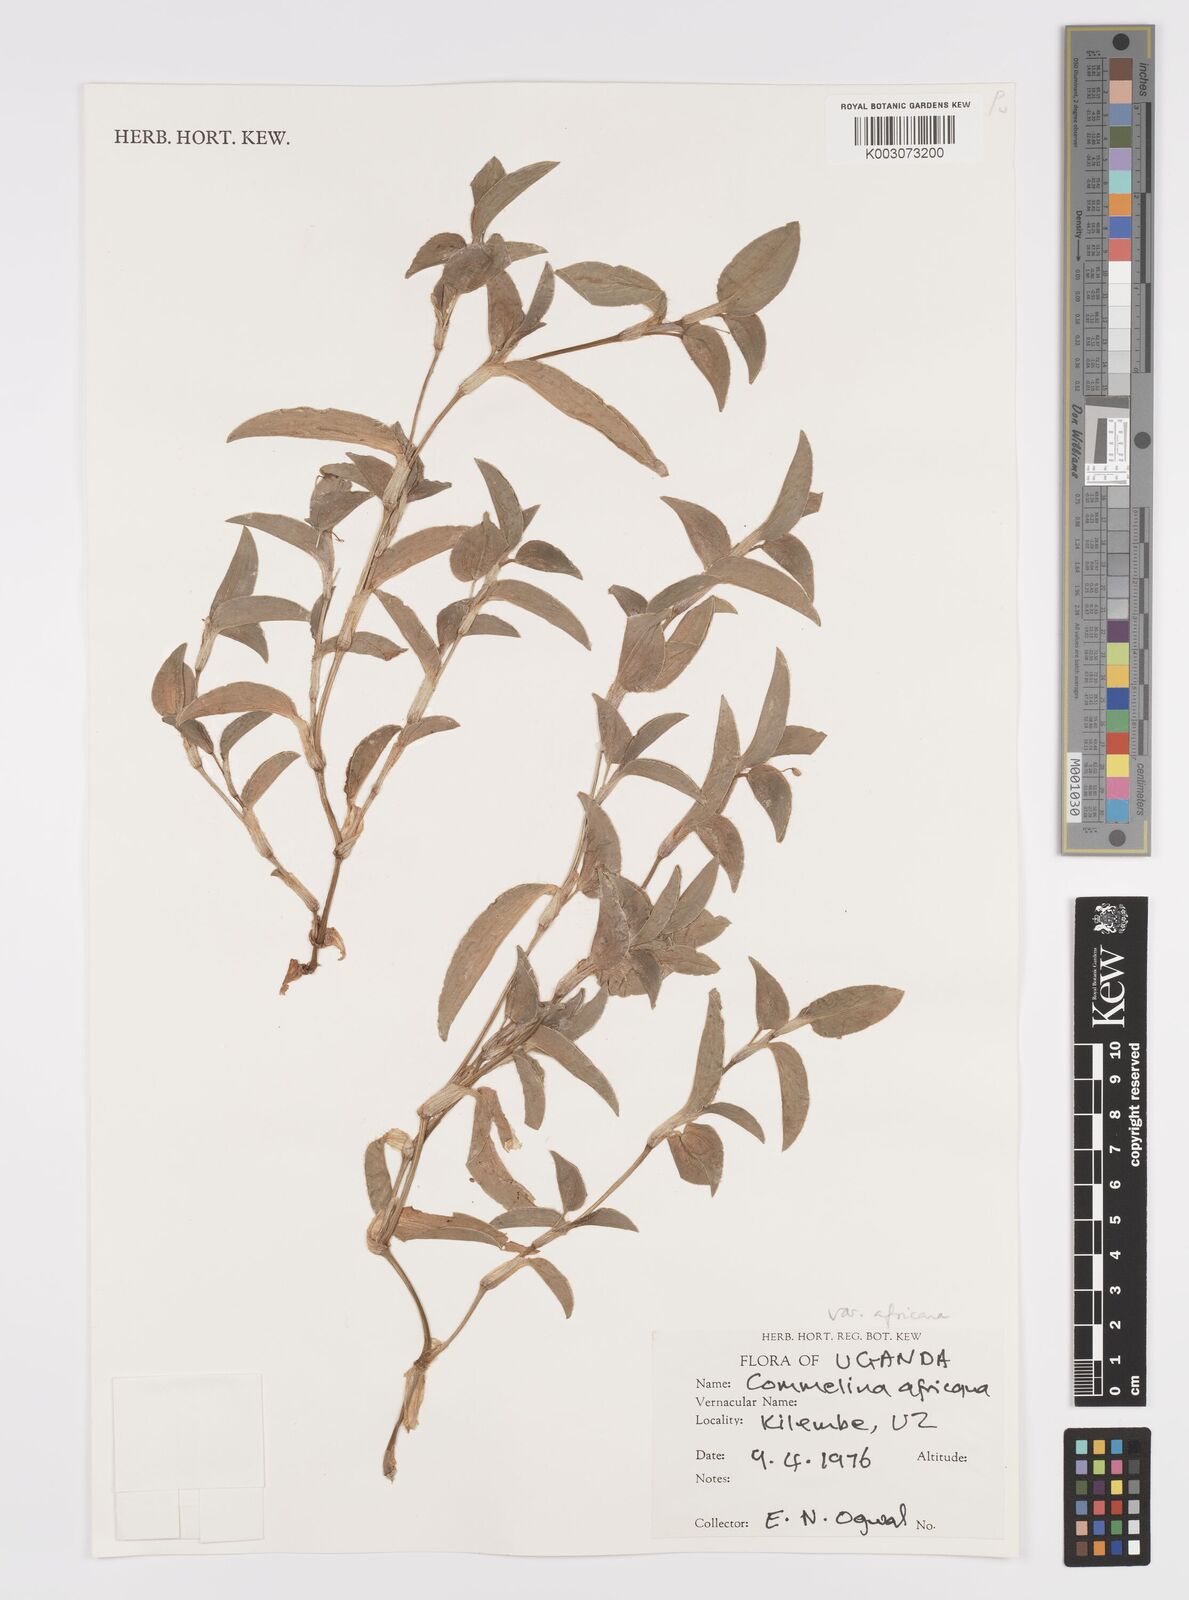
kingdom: Plantae
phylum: Tracheophyta
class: Liliopsida
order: Commelinales
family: Commelinaceae
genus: Commelina
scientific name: Commelina africana
